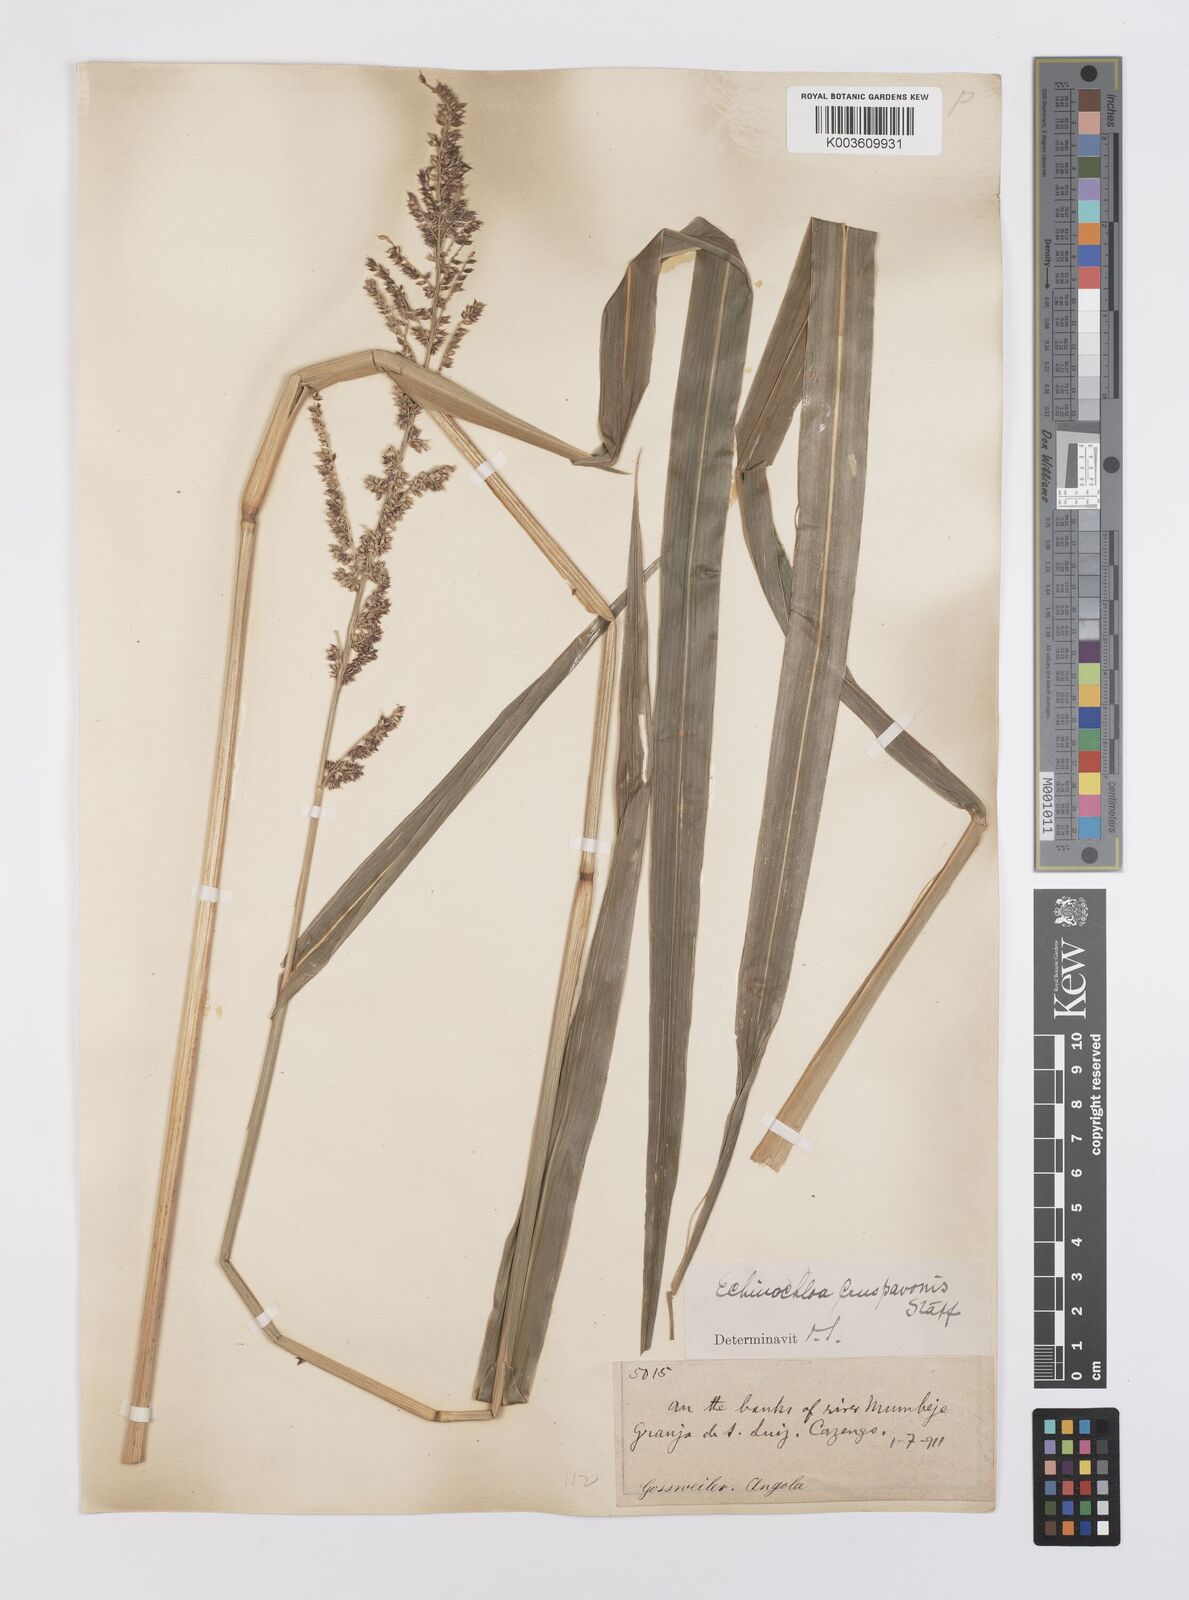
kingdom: Plantae
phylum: Tracheophyta
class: Liliopsida
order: Poales
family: Poaceae
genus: Echinochloa
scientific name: Echinochloa crus-pavonis
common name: Gulf cockspur grass
